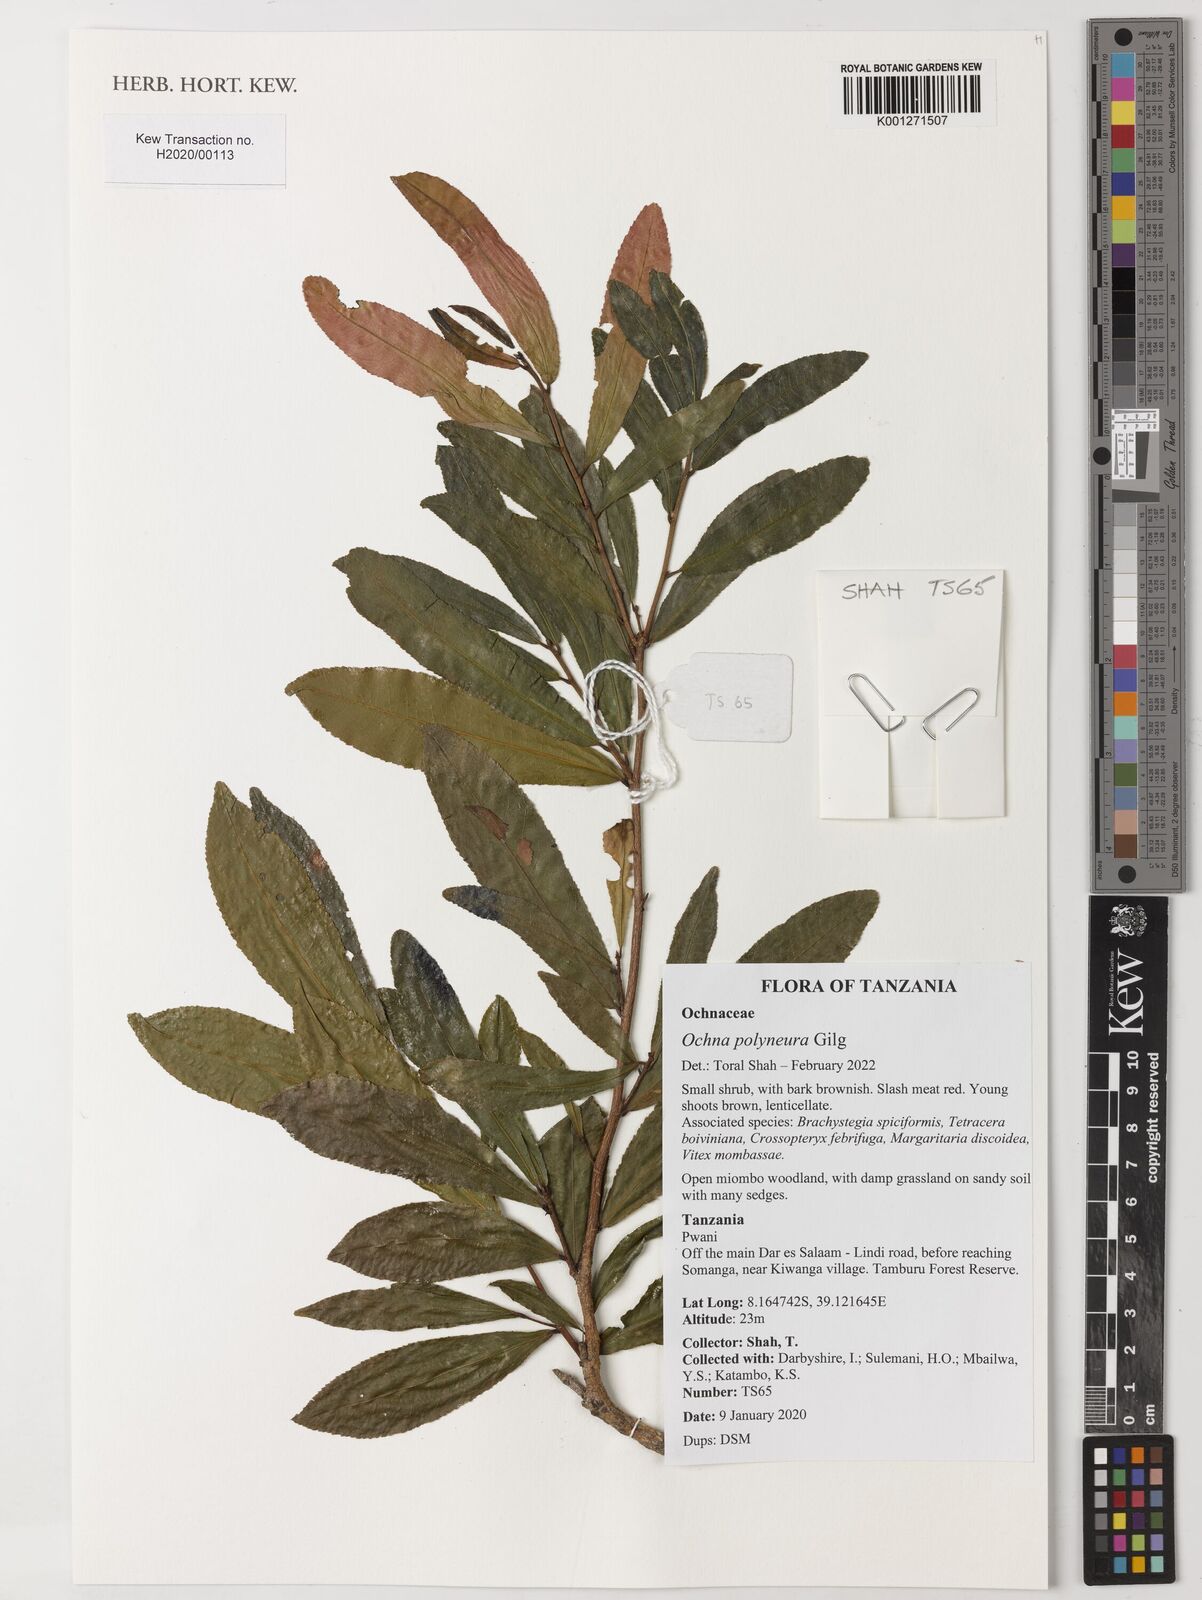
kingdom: Plantae
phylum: Tracheophyta
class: Magnoliopsida
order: Malpighiales
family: Ochnaceae
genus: Ochna
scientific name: Ochna polyneura
